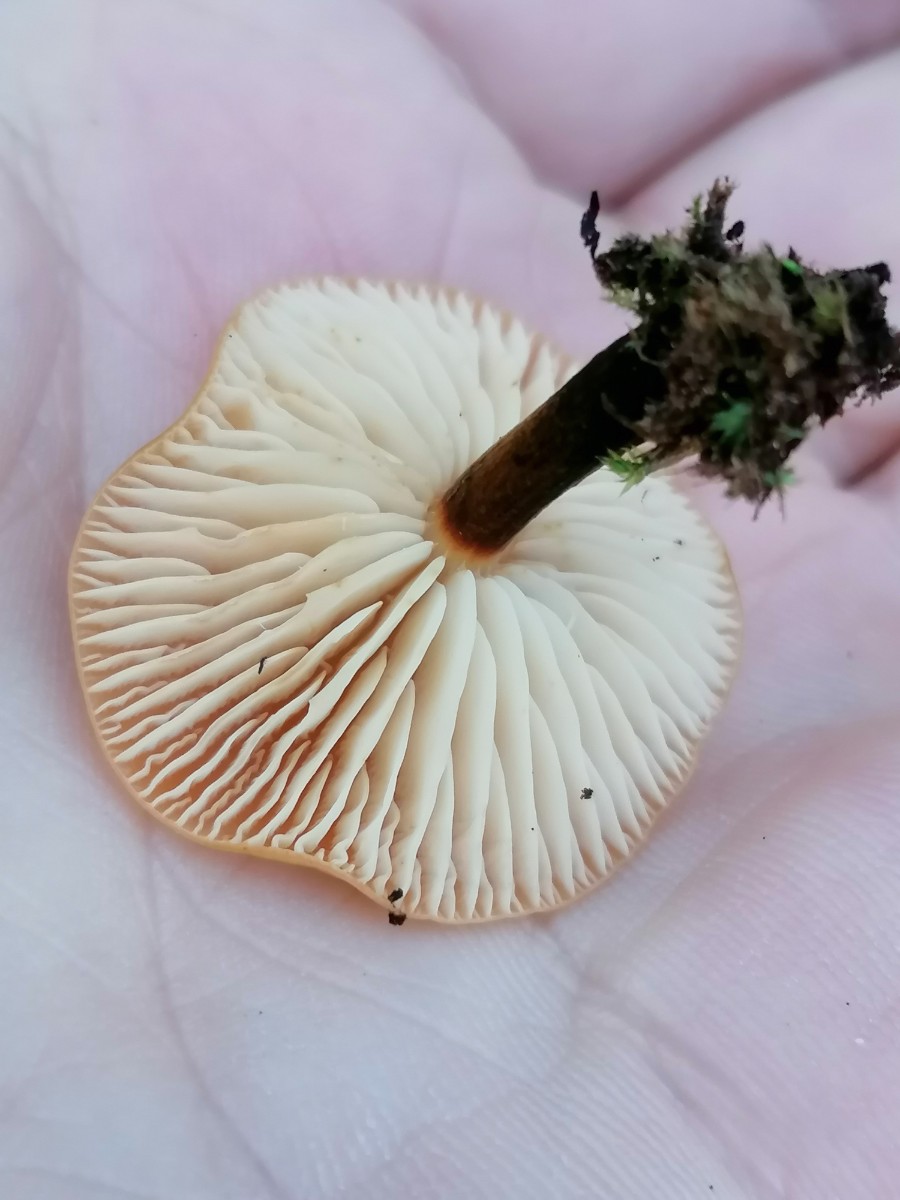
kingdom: Fungi
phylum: Basidiomycota
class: Agaricomycetes
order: Agaricales
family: Physalacriaceae
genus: Flammulina
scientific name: Flammulina
